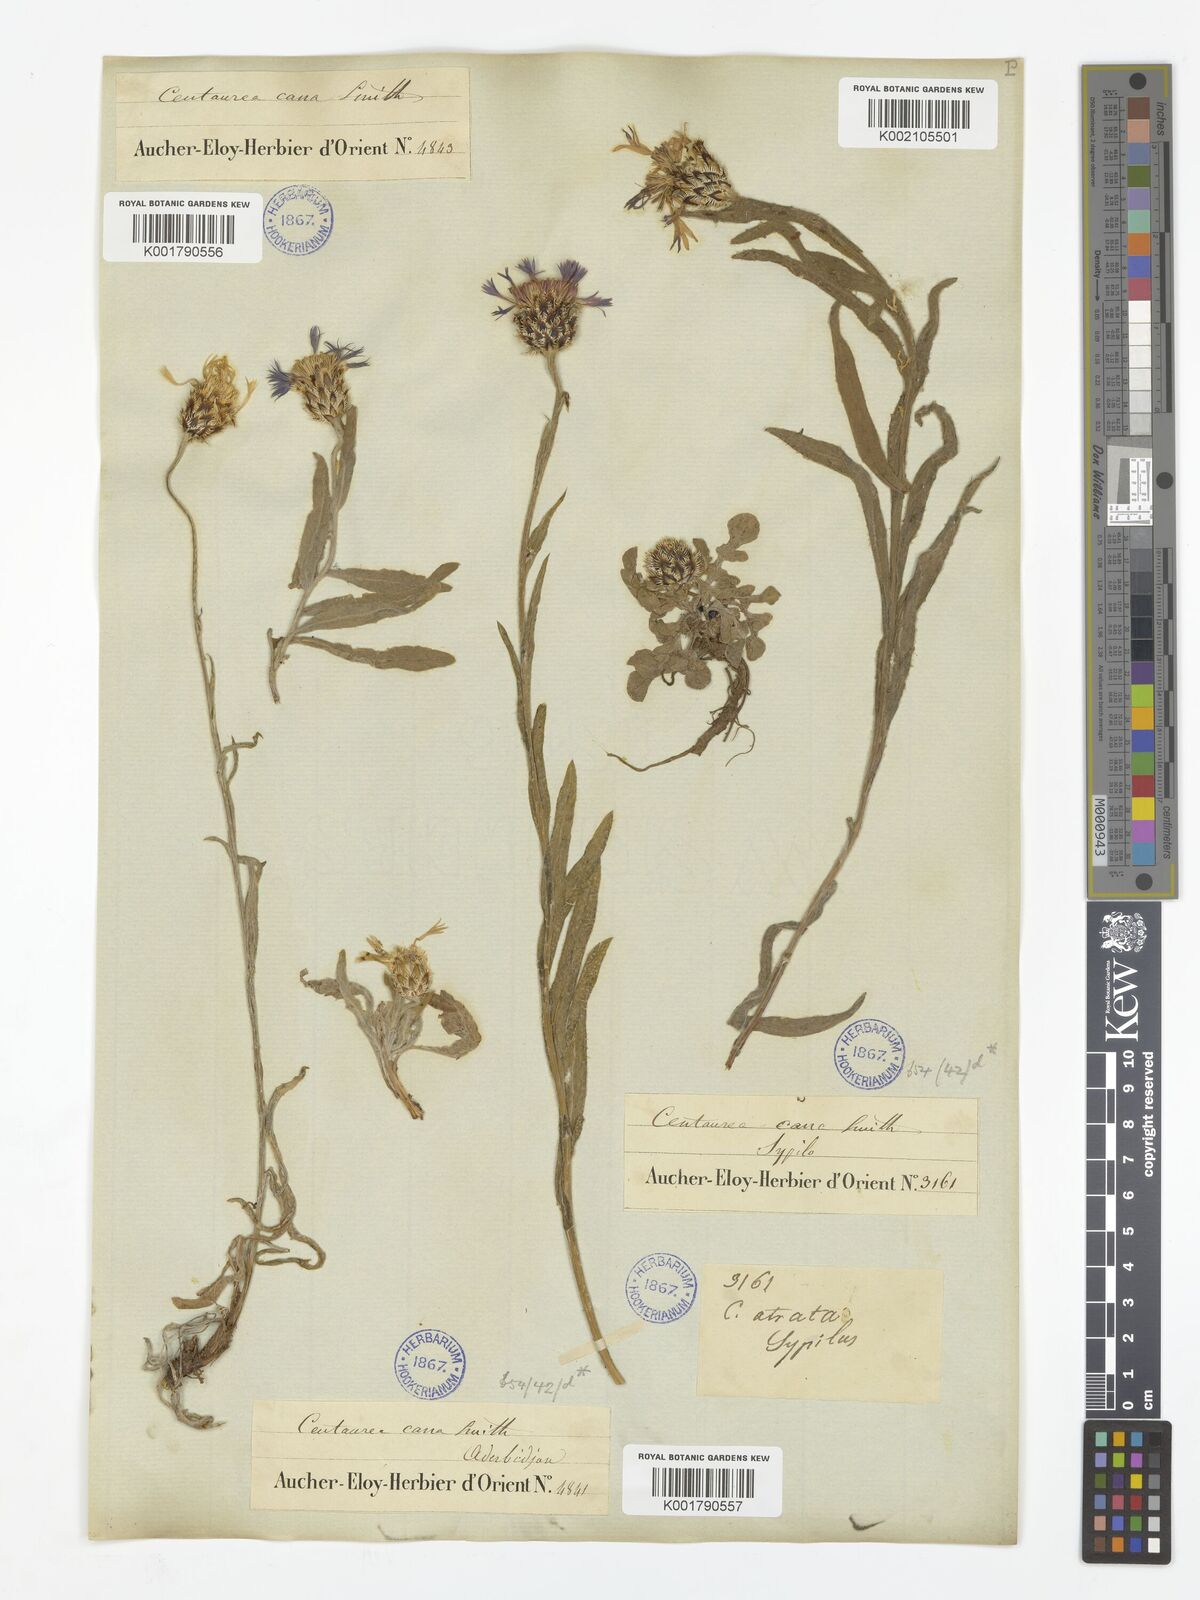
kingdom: Plantae
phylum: Tracheophyta
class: Magnoliopsida
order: Asterales
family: Asteraceae
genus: Centaurea
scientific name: Centaurea triumfettii
